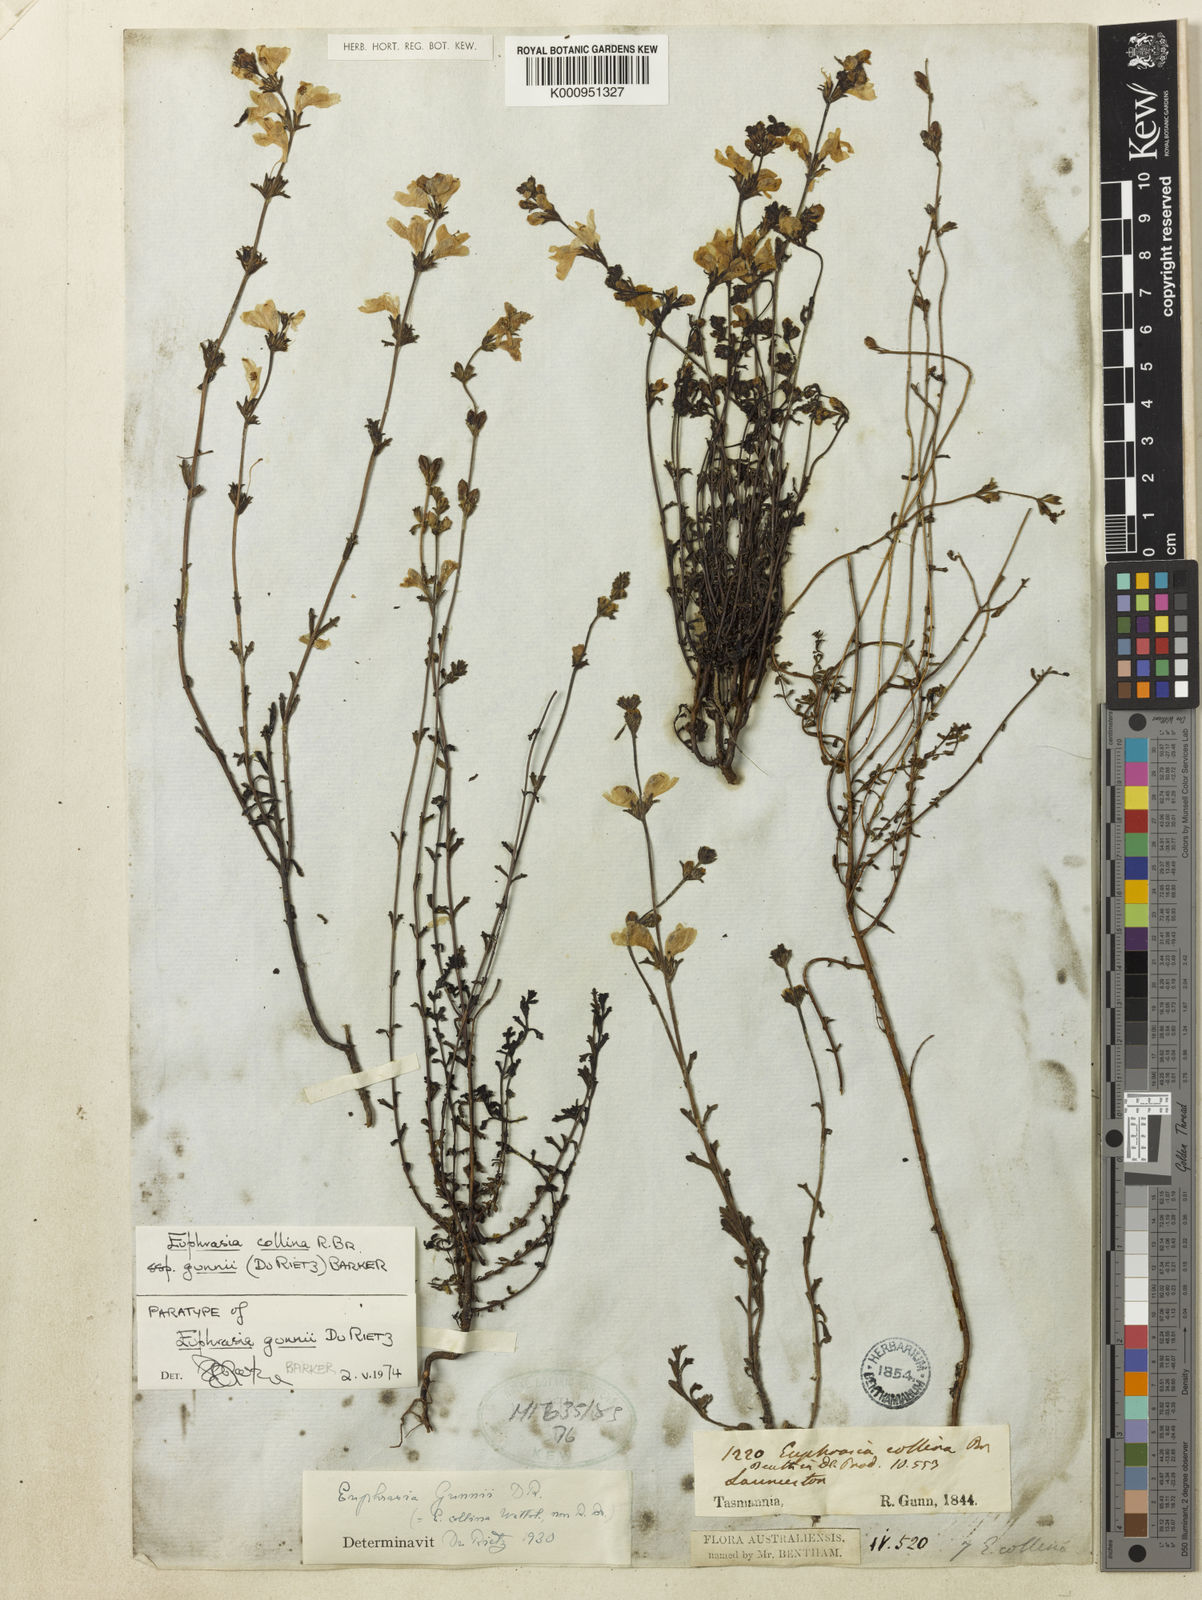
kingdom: Plantae
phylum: Tracheophyta
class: Magnoliopsida
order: Lamiales
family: Orobanchaceae
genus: Euphrasia
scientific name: Euphrasia collina
